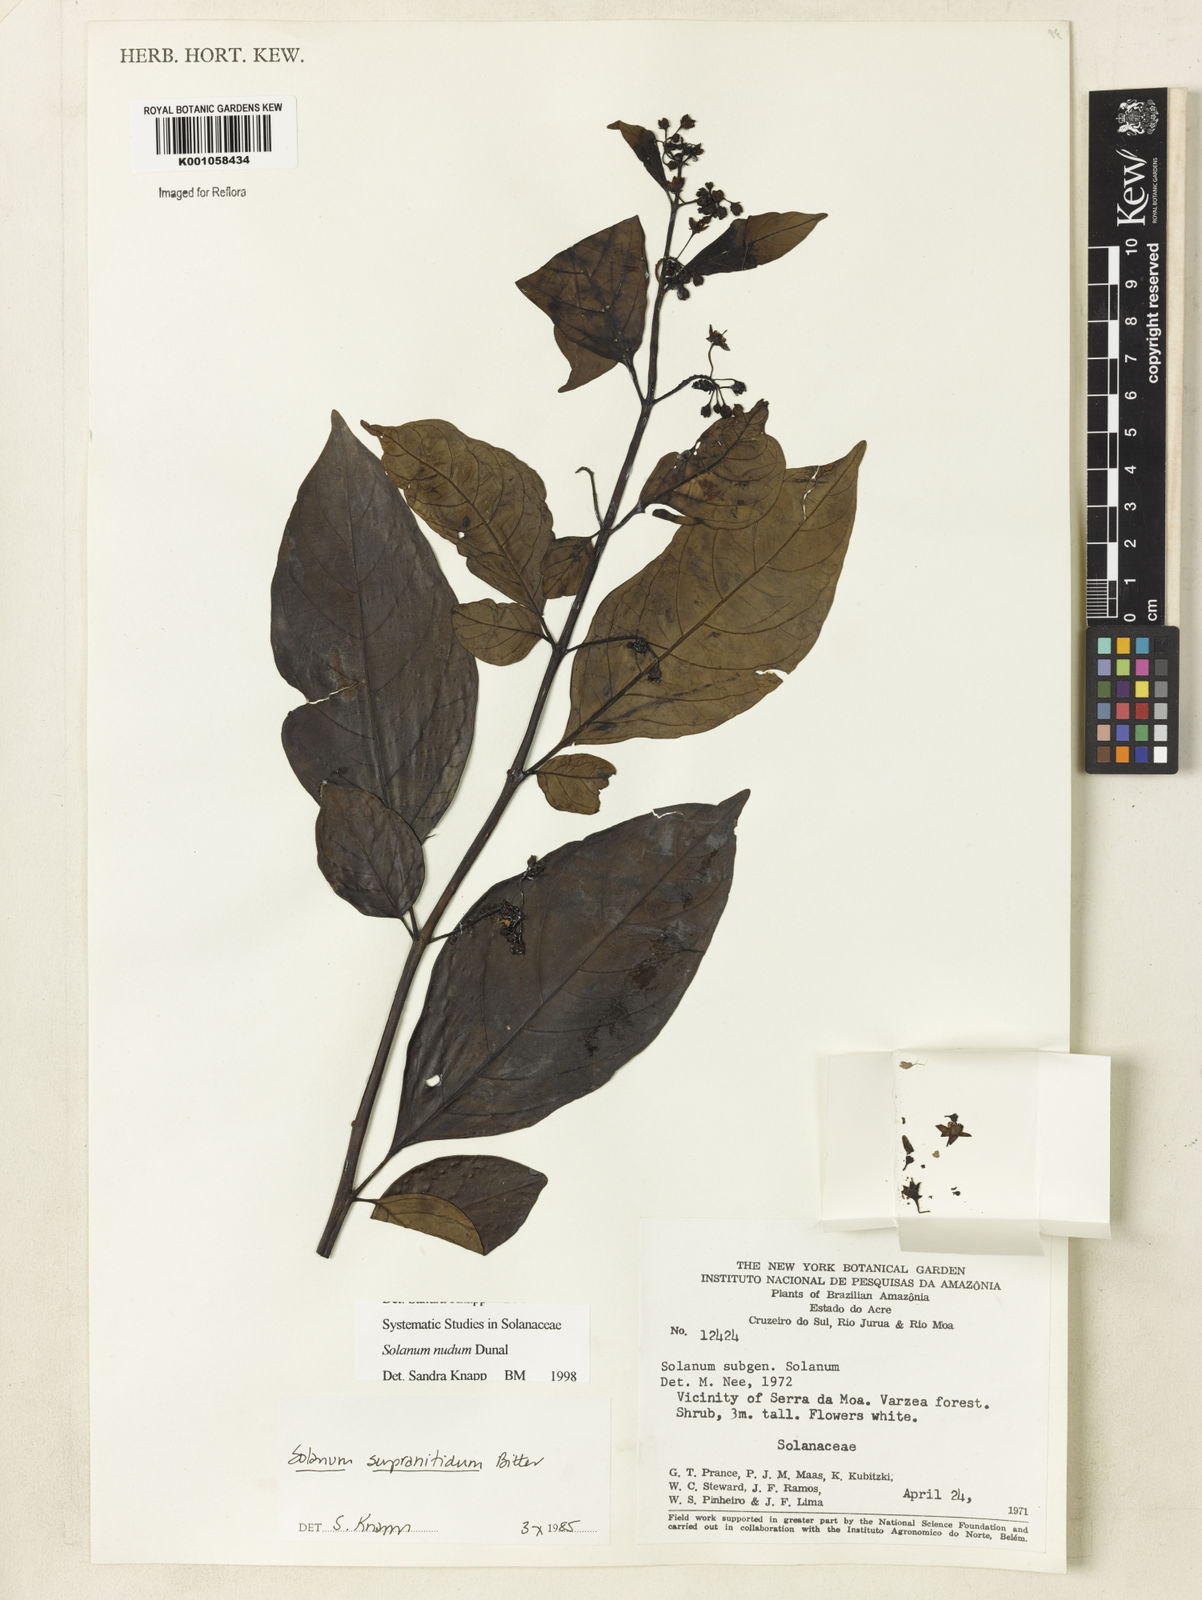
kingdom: Plantae
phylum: Tracheophyta
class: Magnoliopsida
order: Solanales
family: Solanaceae
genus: Solanum
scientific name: Solanum nudum
